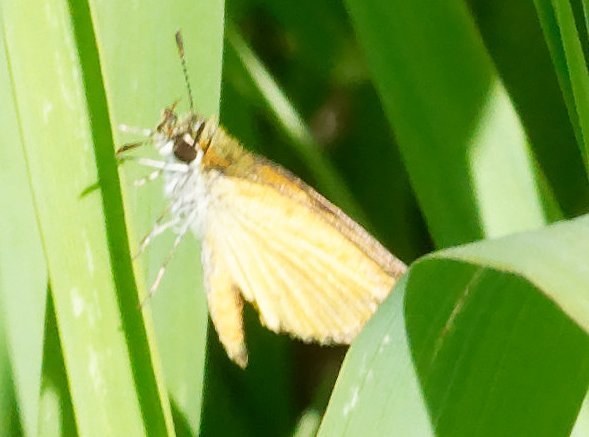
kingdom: Animalia
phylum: Arthropoda
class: Insecta
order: Lepidoptera
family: Hesperiidae
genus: Ancyloxypha
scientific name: Ancyloxypha numitor
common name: Least Skipper
